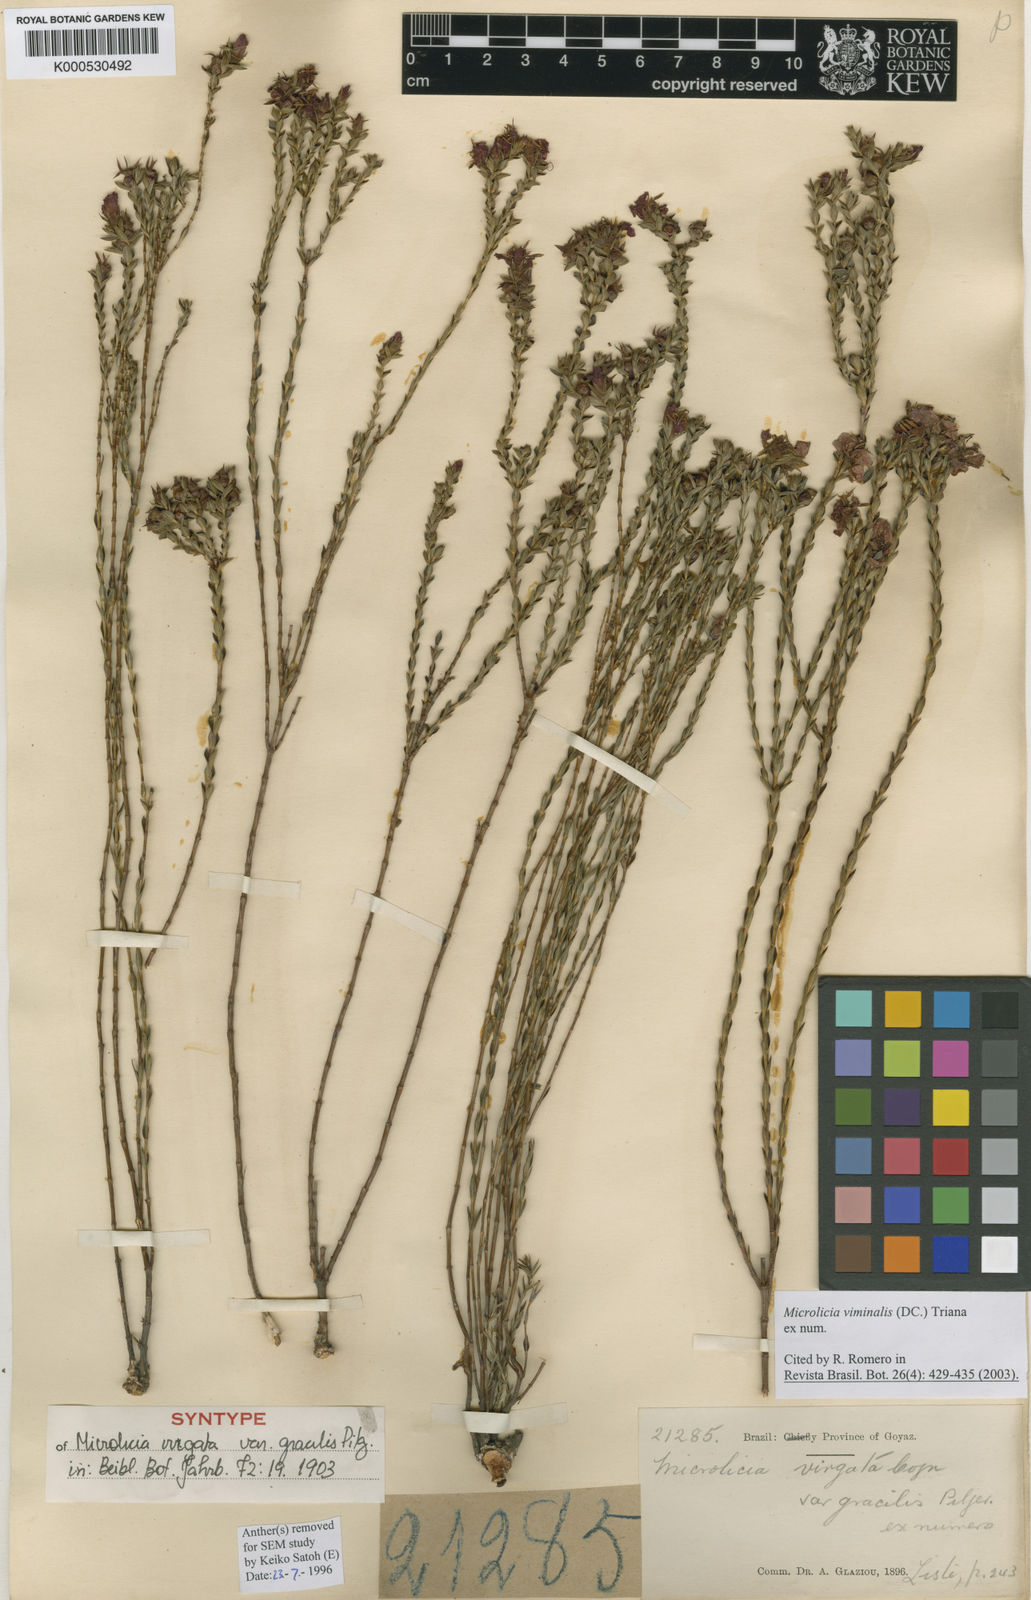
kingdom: Plantae
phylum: Tracheophyta
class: Magnoliopsida
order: Myrtales
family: Melastomataceae
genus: Microlicia
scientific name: Microlicia viminalis
